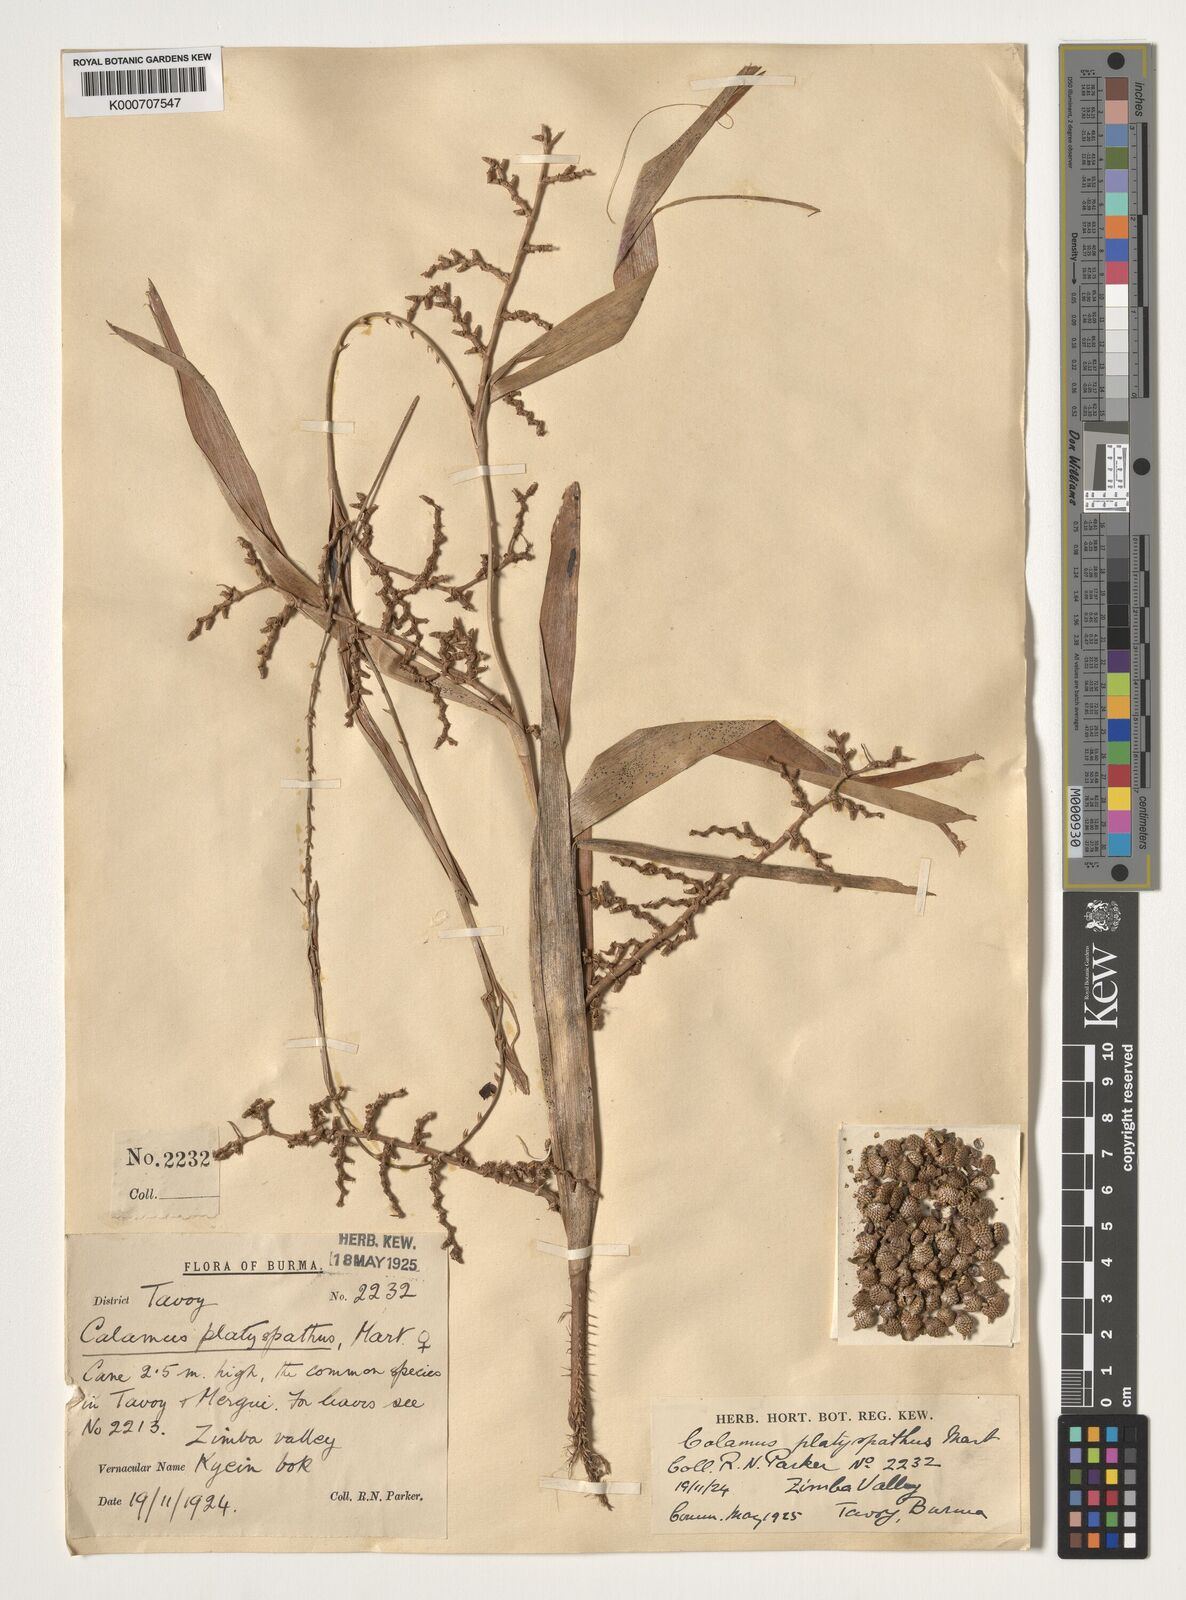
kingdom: Plantae
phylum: Tracheophyta
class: Liliopsida
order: Arecales
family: Arecaceae
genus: Calamus
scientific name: Calamus platyspathus
